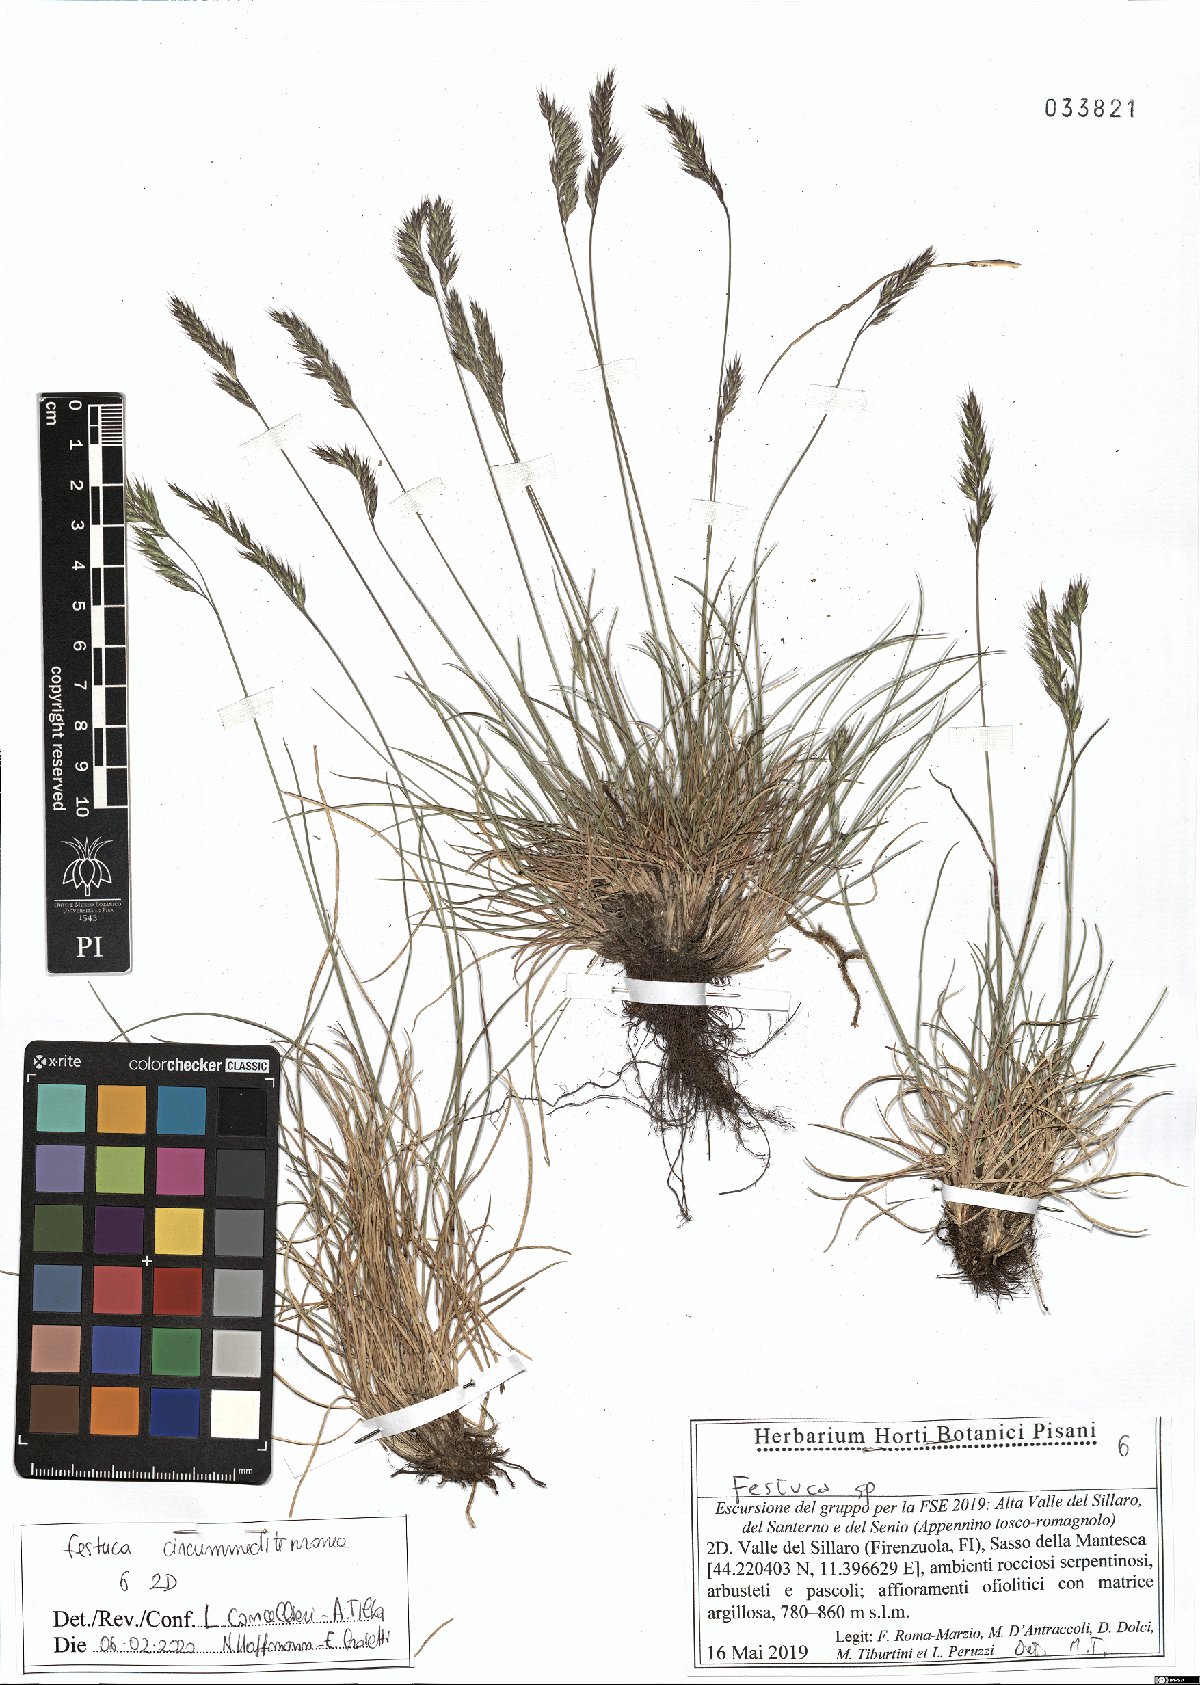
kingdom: Plantae
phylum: Tracheophyta
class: Liliopsida
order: Poales
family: Poaceae
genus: Festuca
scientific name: Festuca circummediterranea
